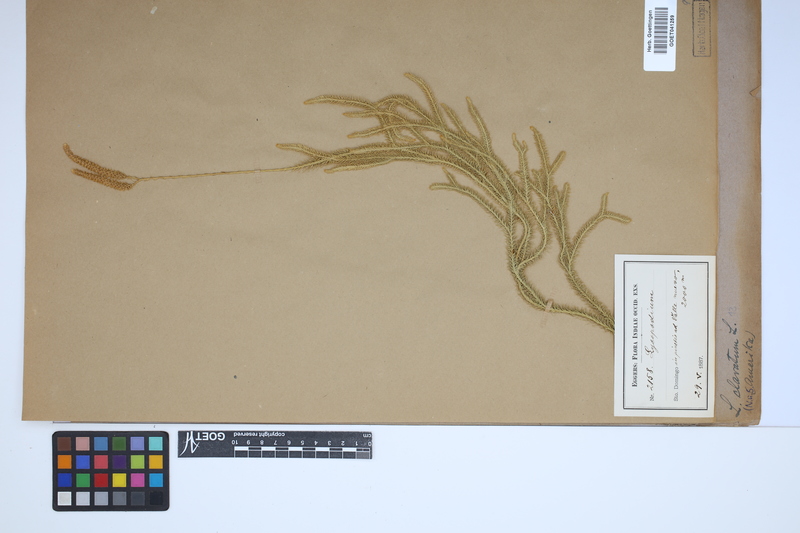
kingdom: Plantae
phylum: Tracheophyta
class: Lycopodiopsida
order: Lycopodiales
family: Lycopodiaceae
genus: Lycopodium
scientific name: Lycopodium clavatum
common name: Stag's-horn clubmoss
